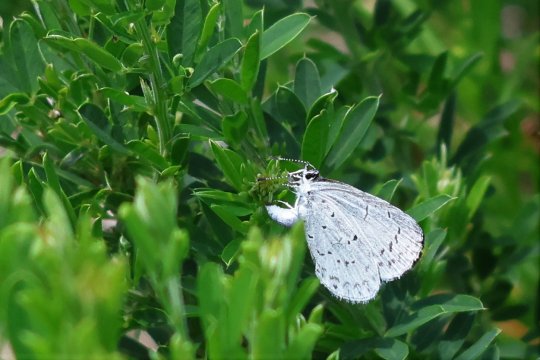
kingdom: Animalia
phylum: Arthropoda
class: Insecta
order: Lepidoptera
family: Lycaenidae
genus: Cyaniris
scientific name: Cyaniris neglecta
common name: Summer Azure
